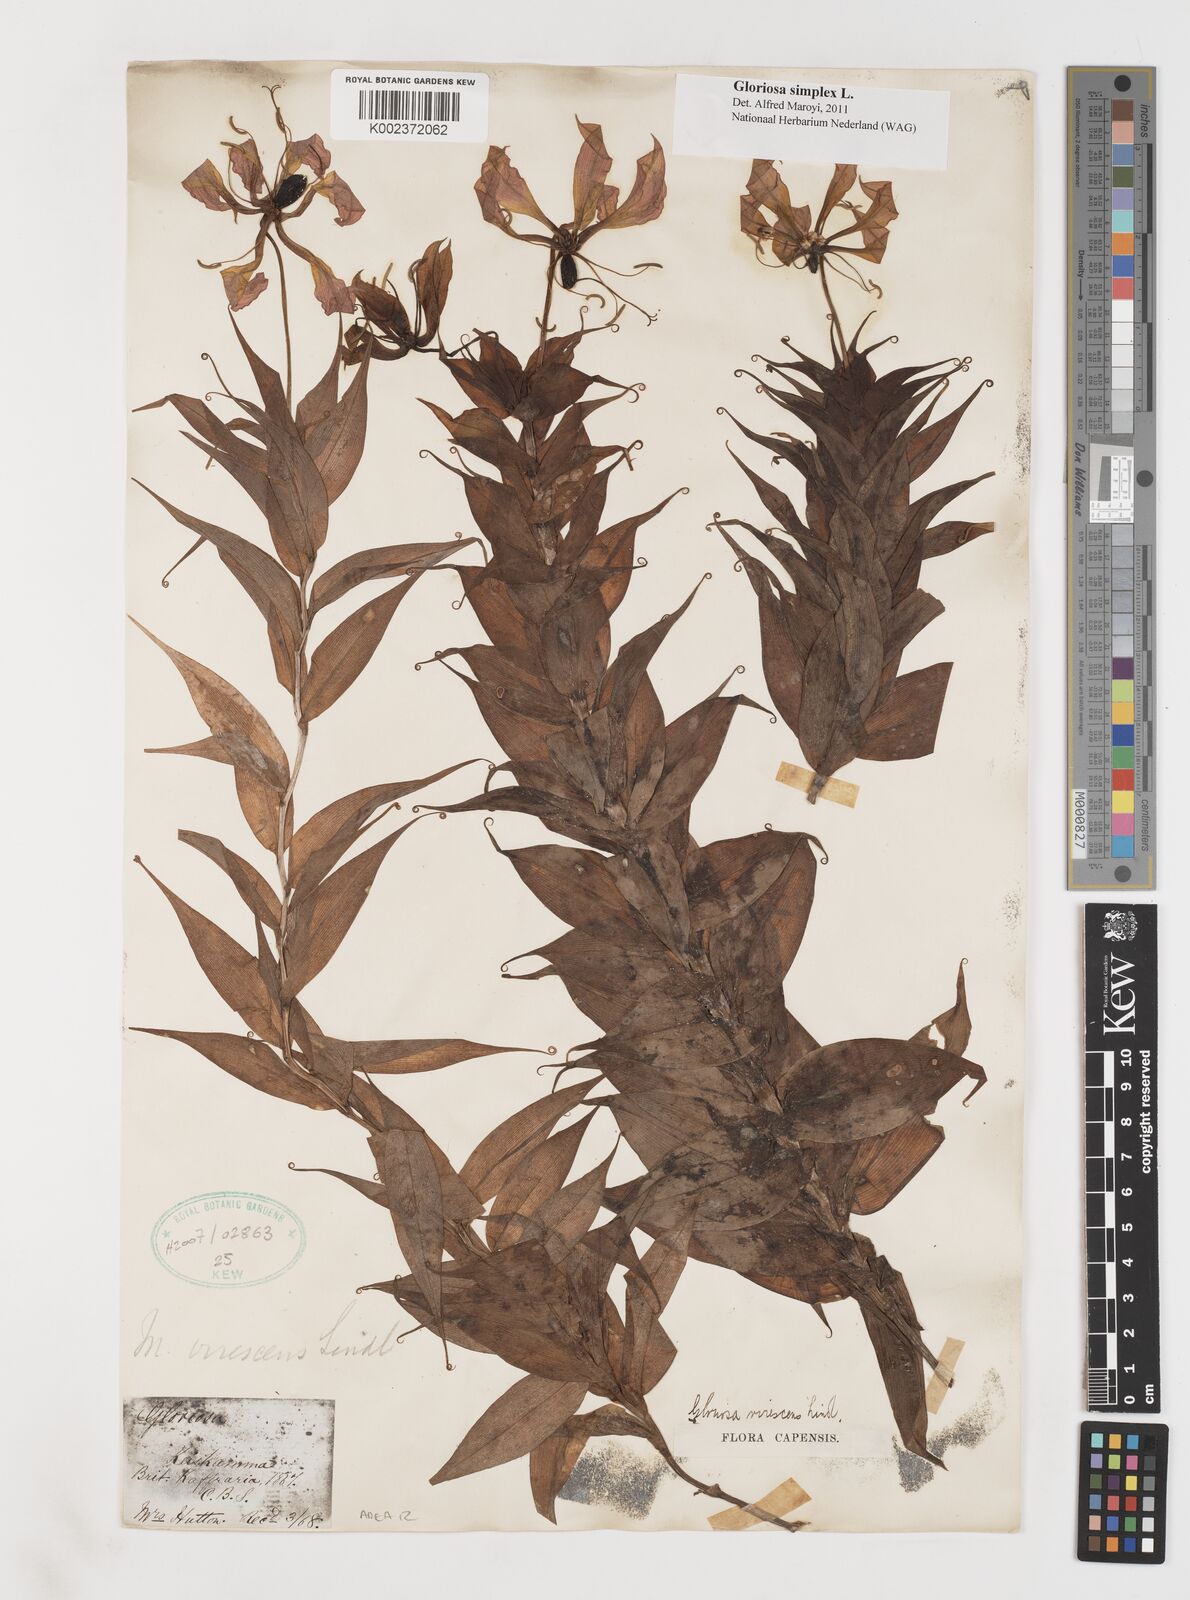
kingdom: Plantae
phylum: Tracheophyta
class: Liliopsida
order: Liliales
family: Colchicaceae
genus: Gloriosa
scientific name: Gloriosa simplex
